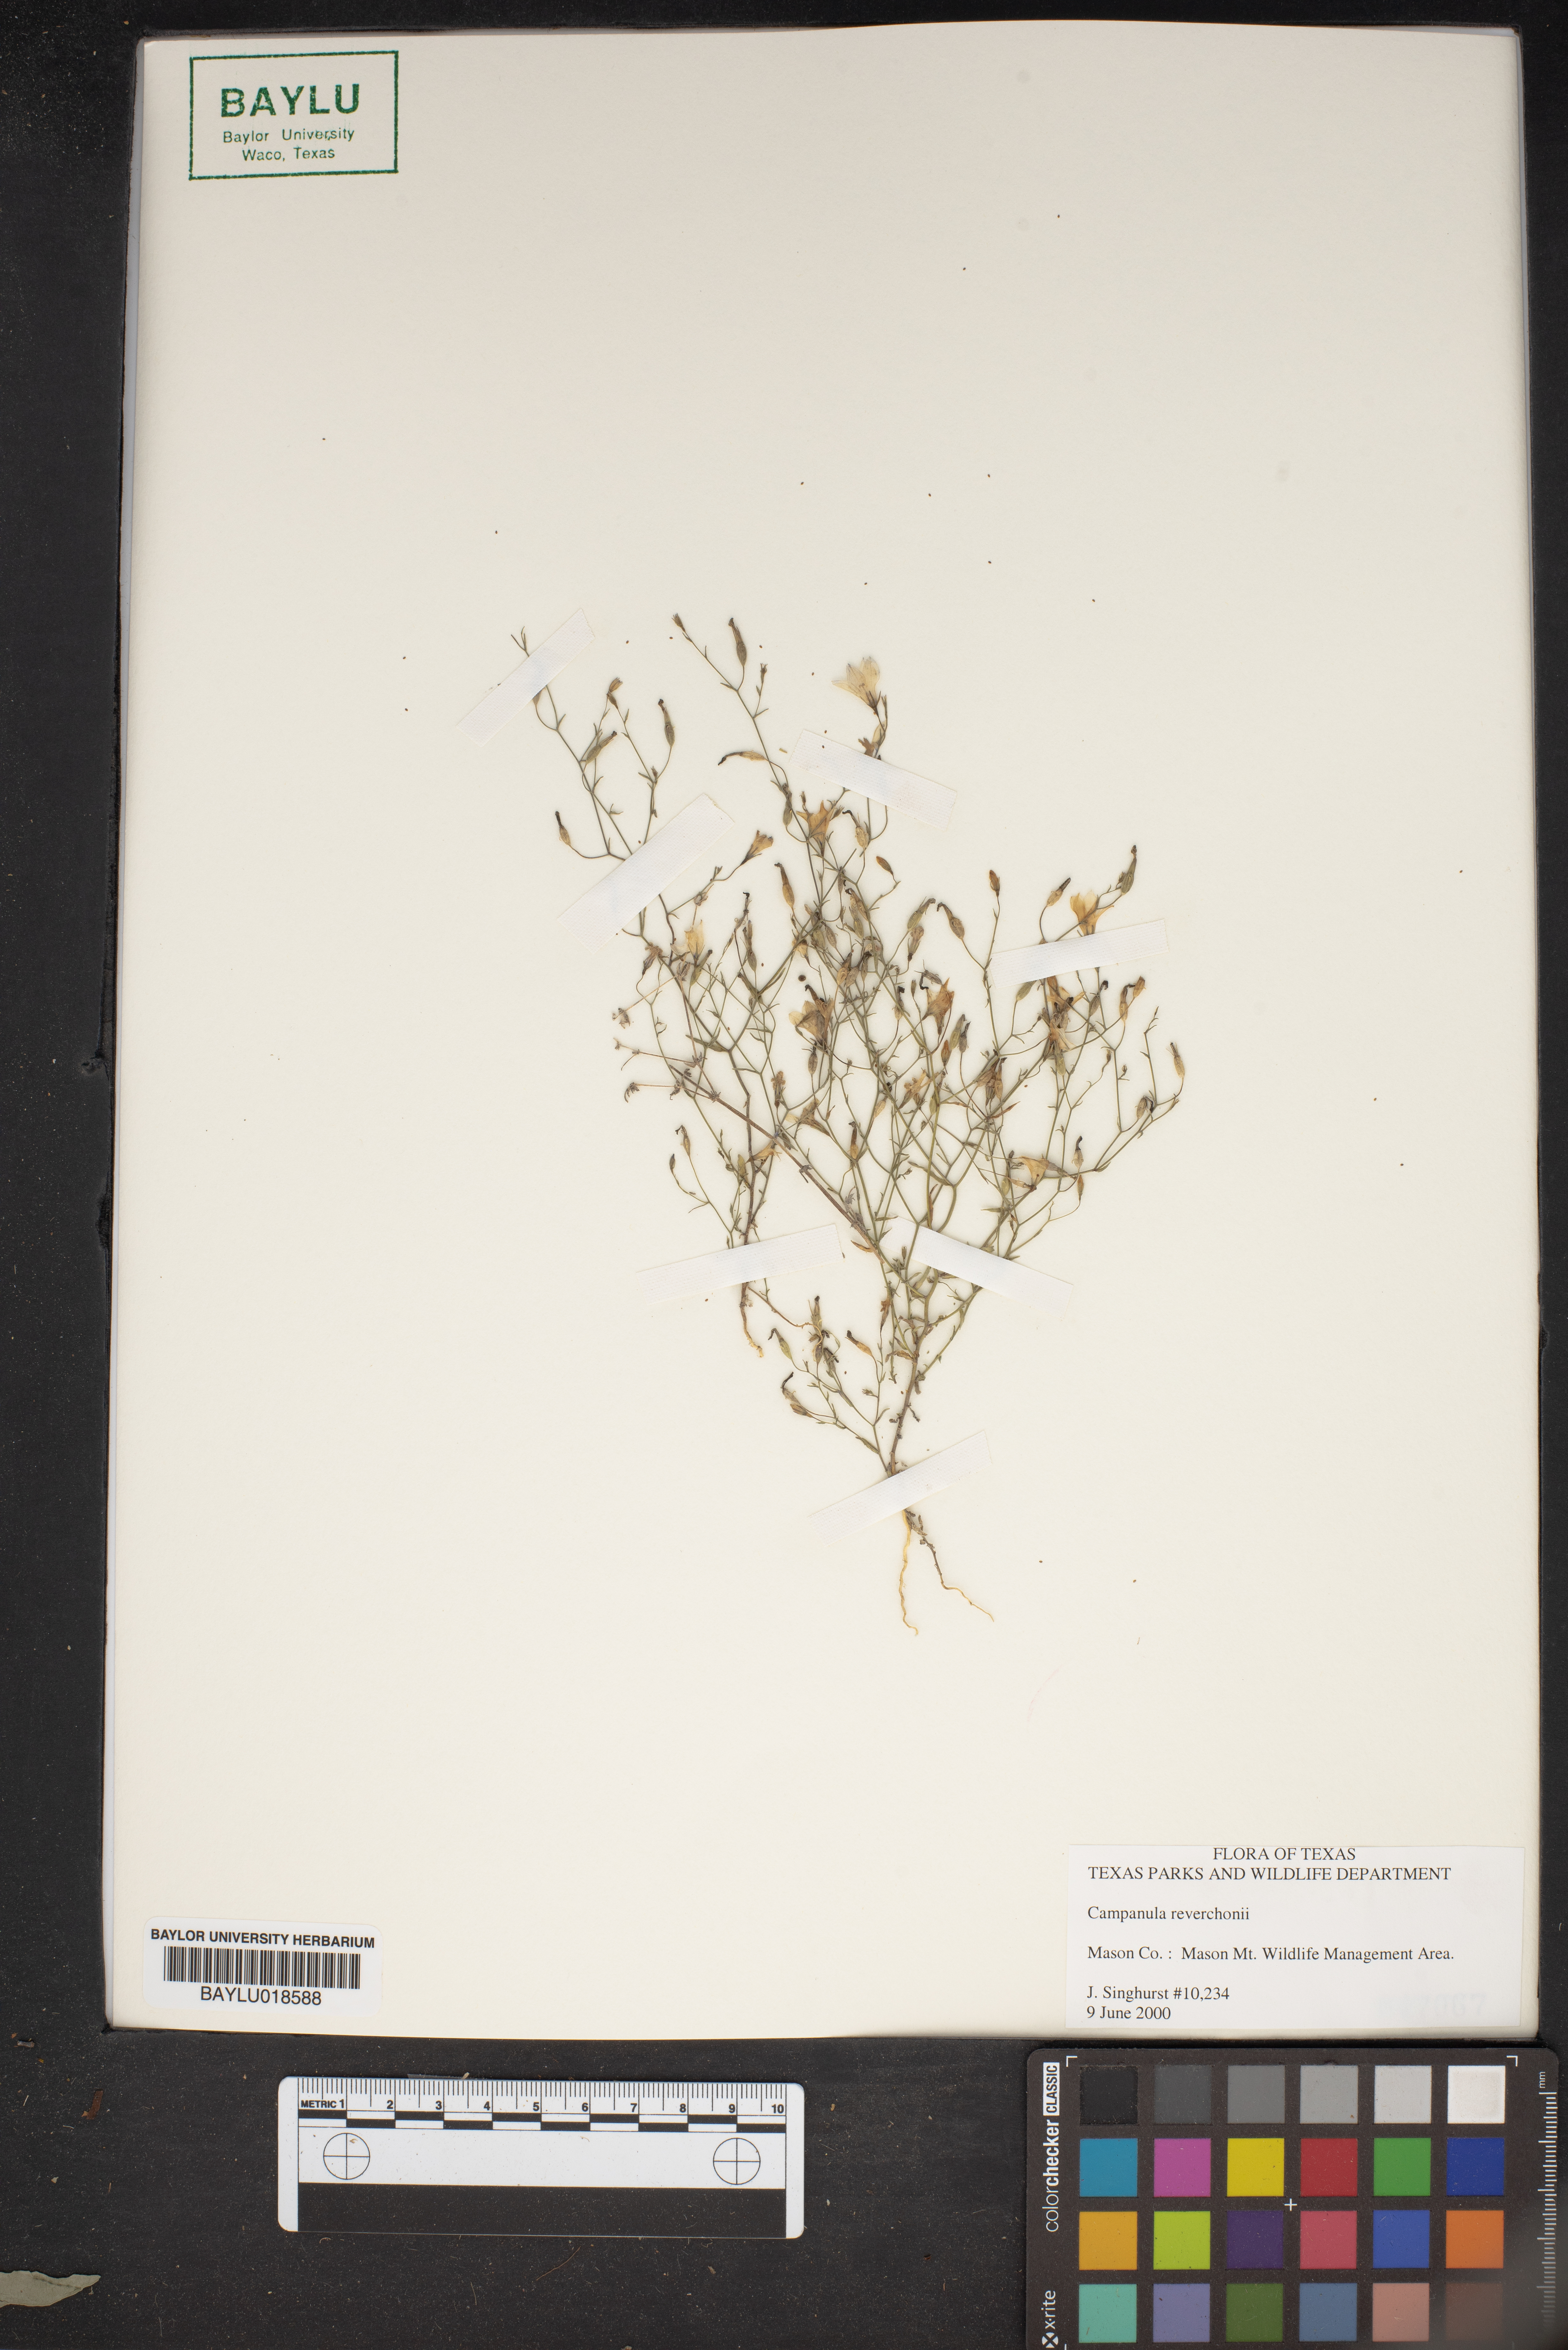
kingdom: Plantae
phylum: Tracheophyta
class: Magnoliopsida
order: Asterales
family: Campanulaceae
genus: Poolea
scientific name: Poolea reverchonii
